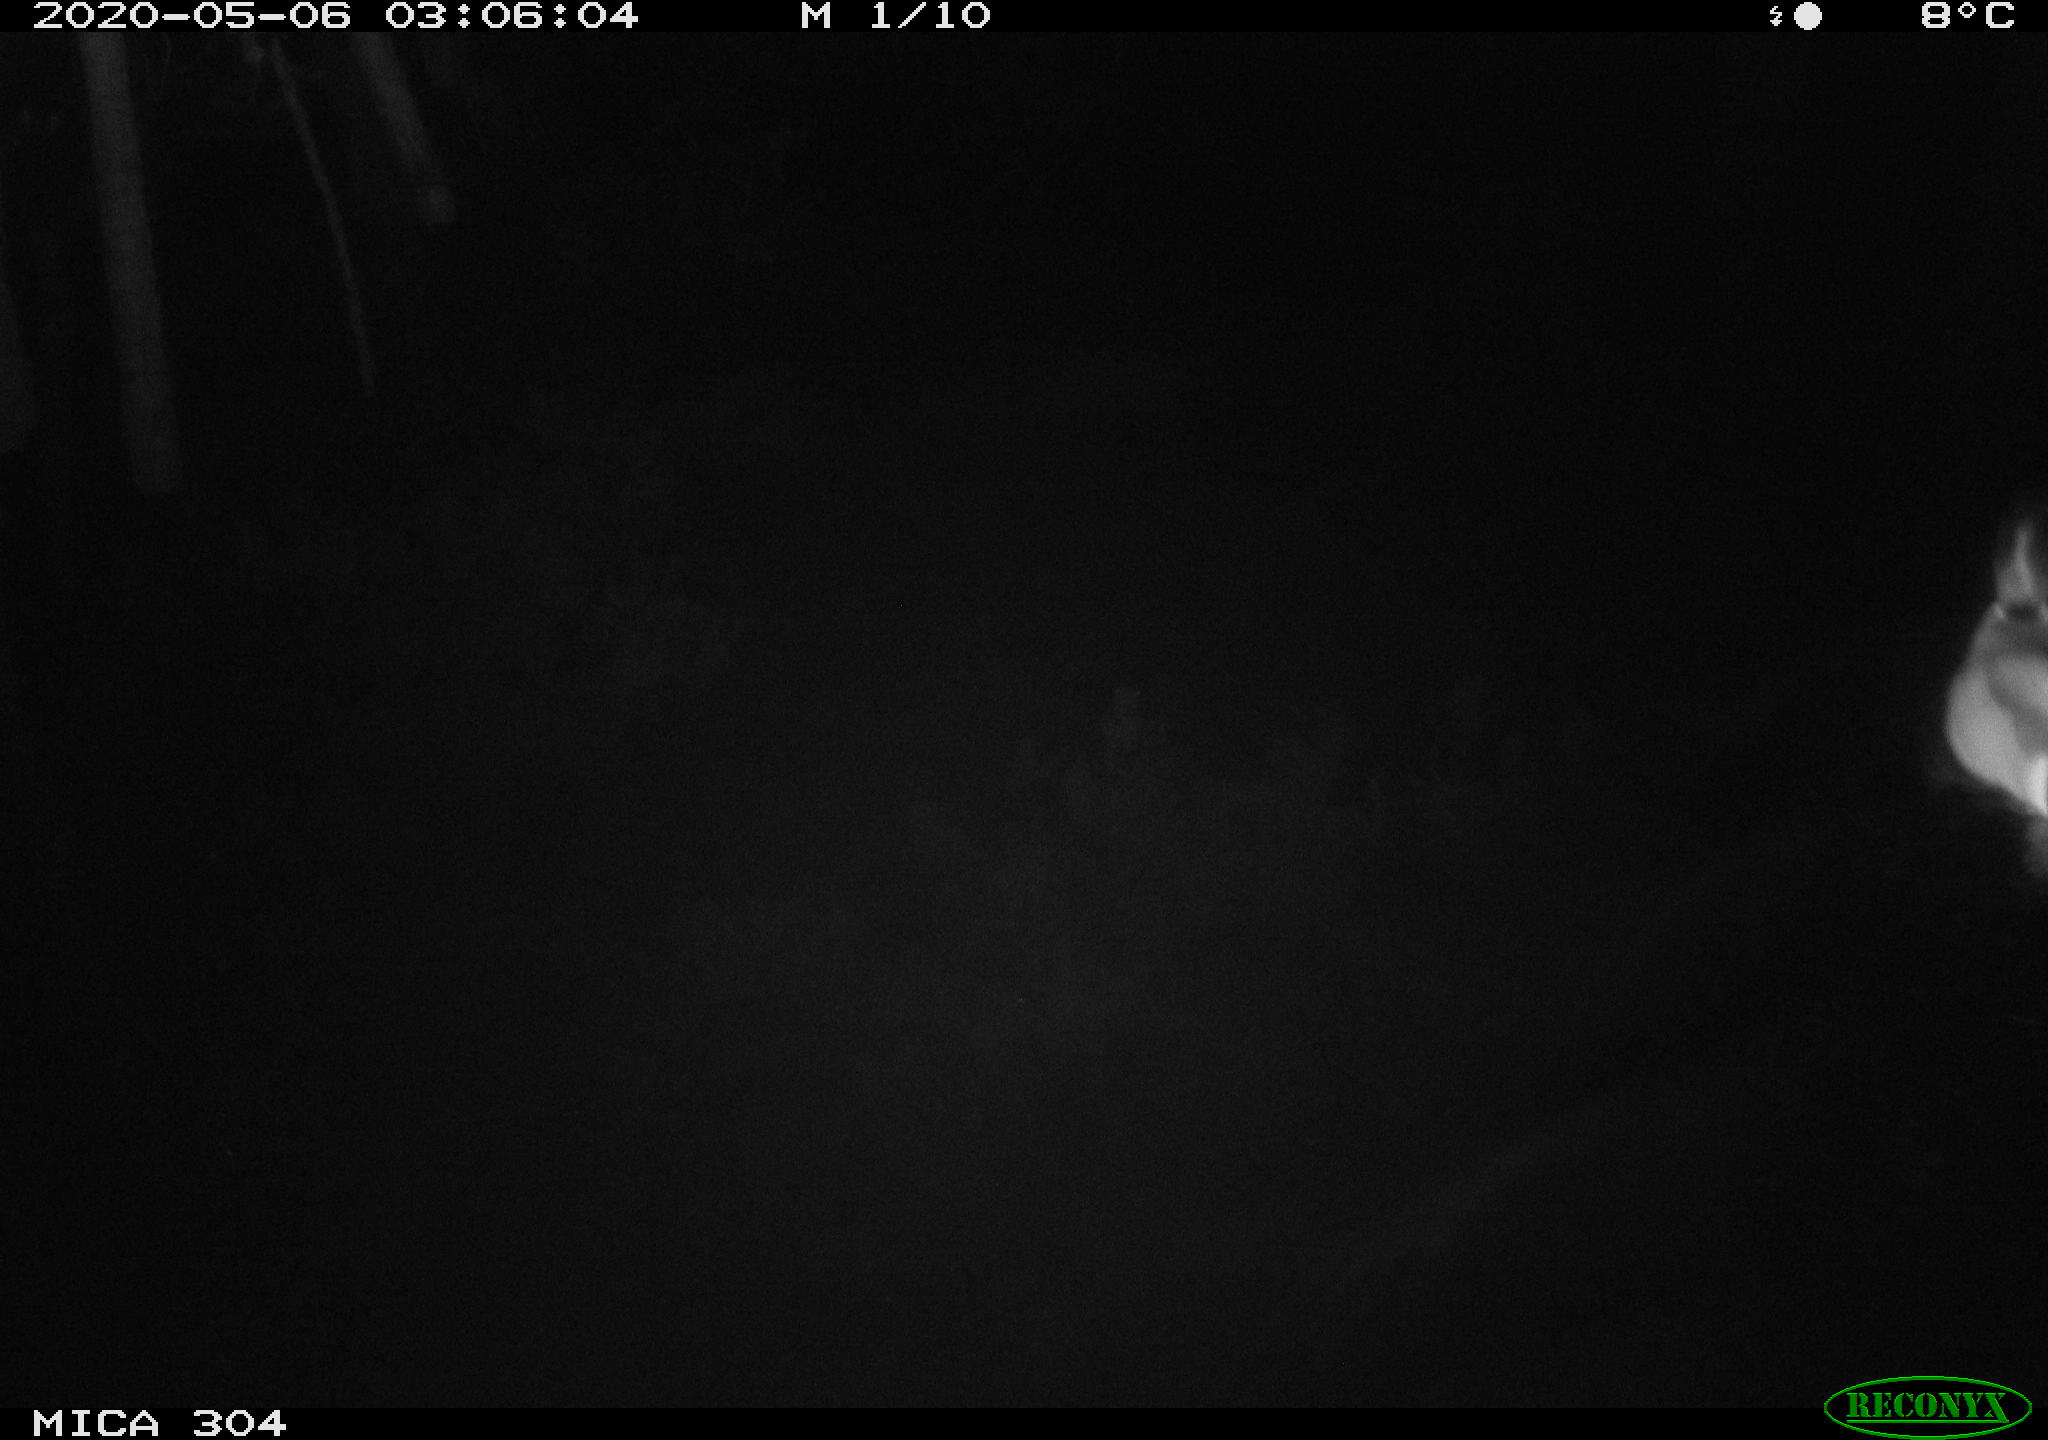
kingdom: Animalia
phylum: Chordata
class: Aves
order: Anseriformes
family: Anatidae
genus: Anas
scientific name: Anas platyrhynchos
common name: Mallard
